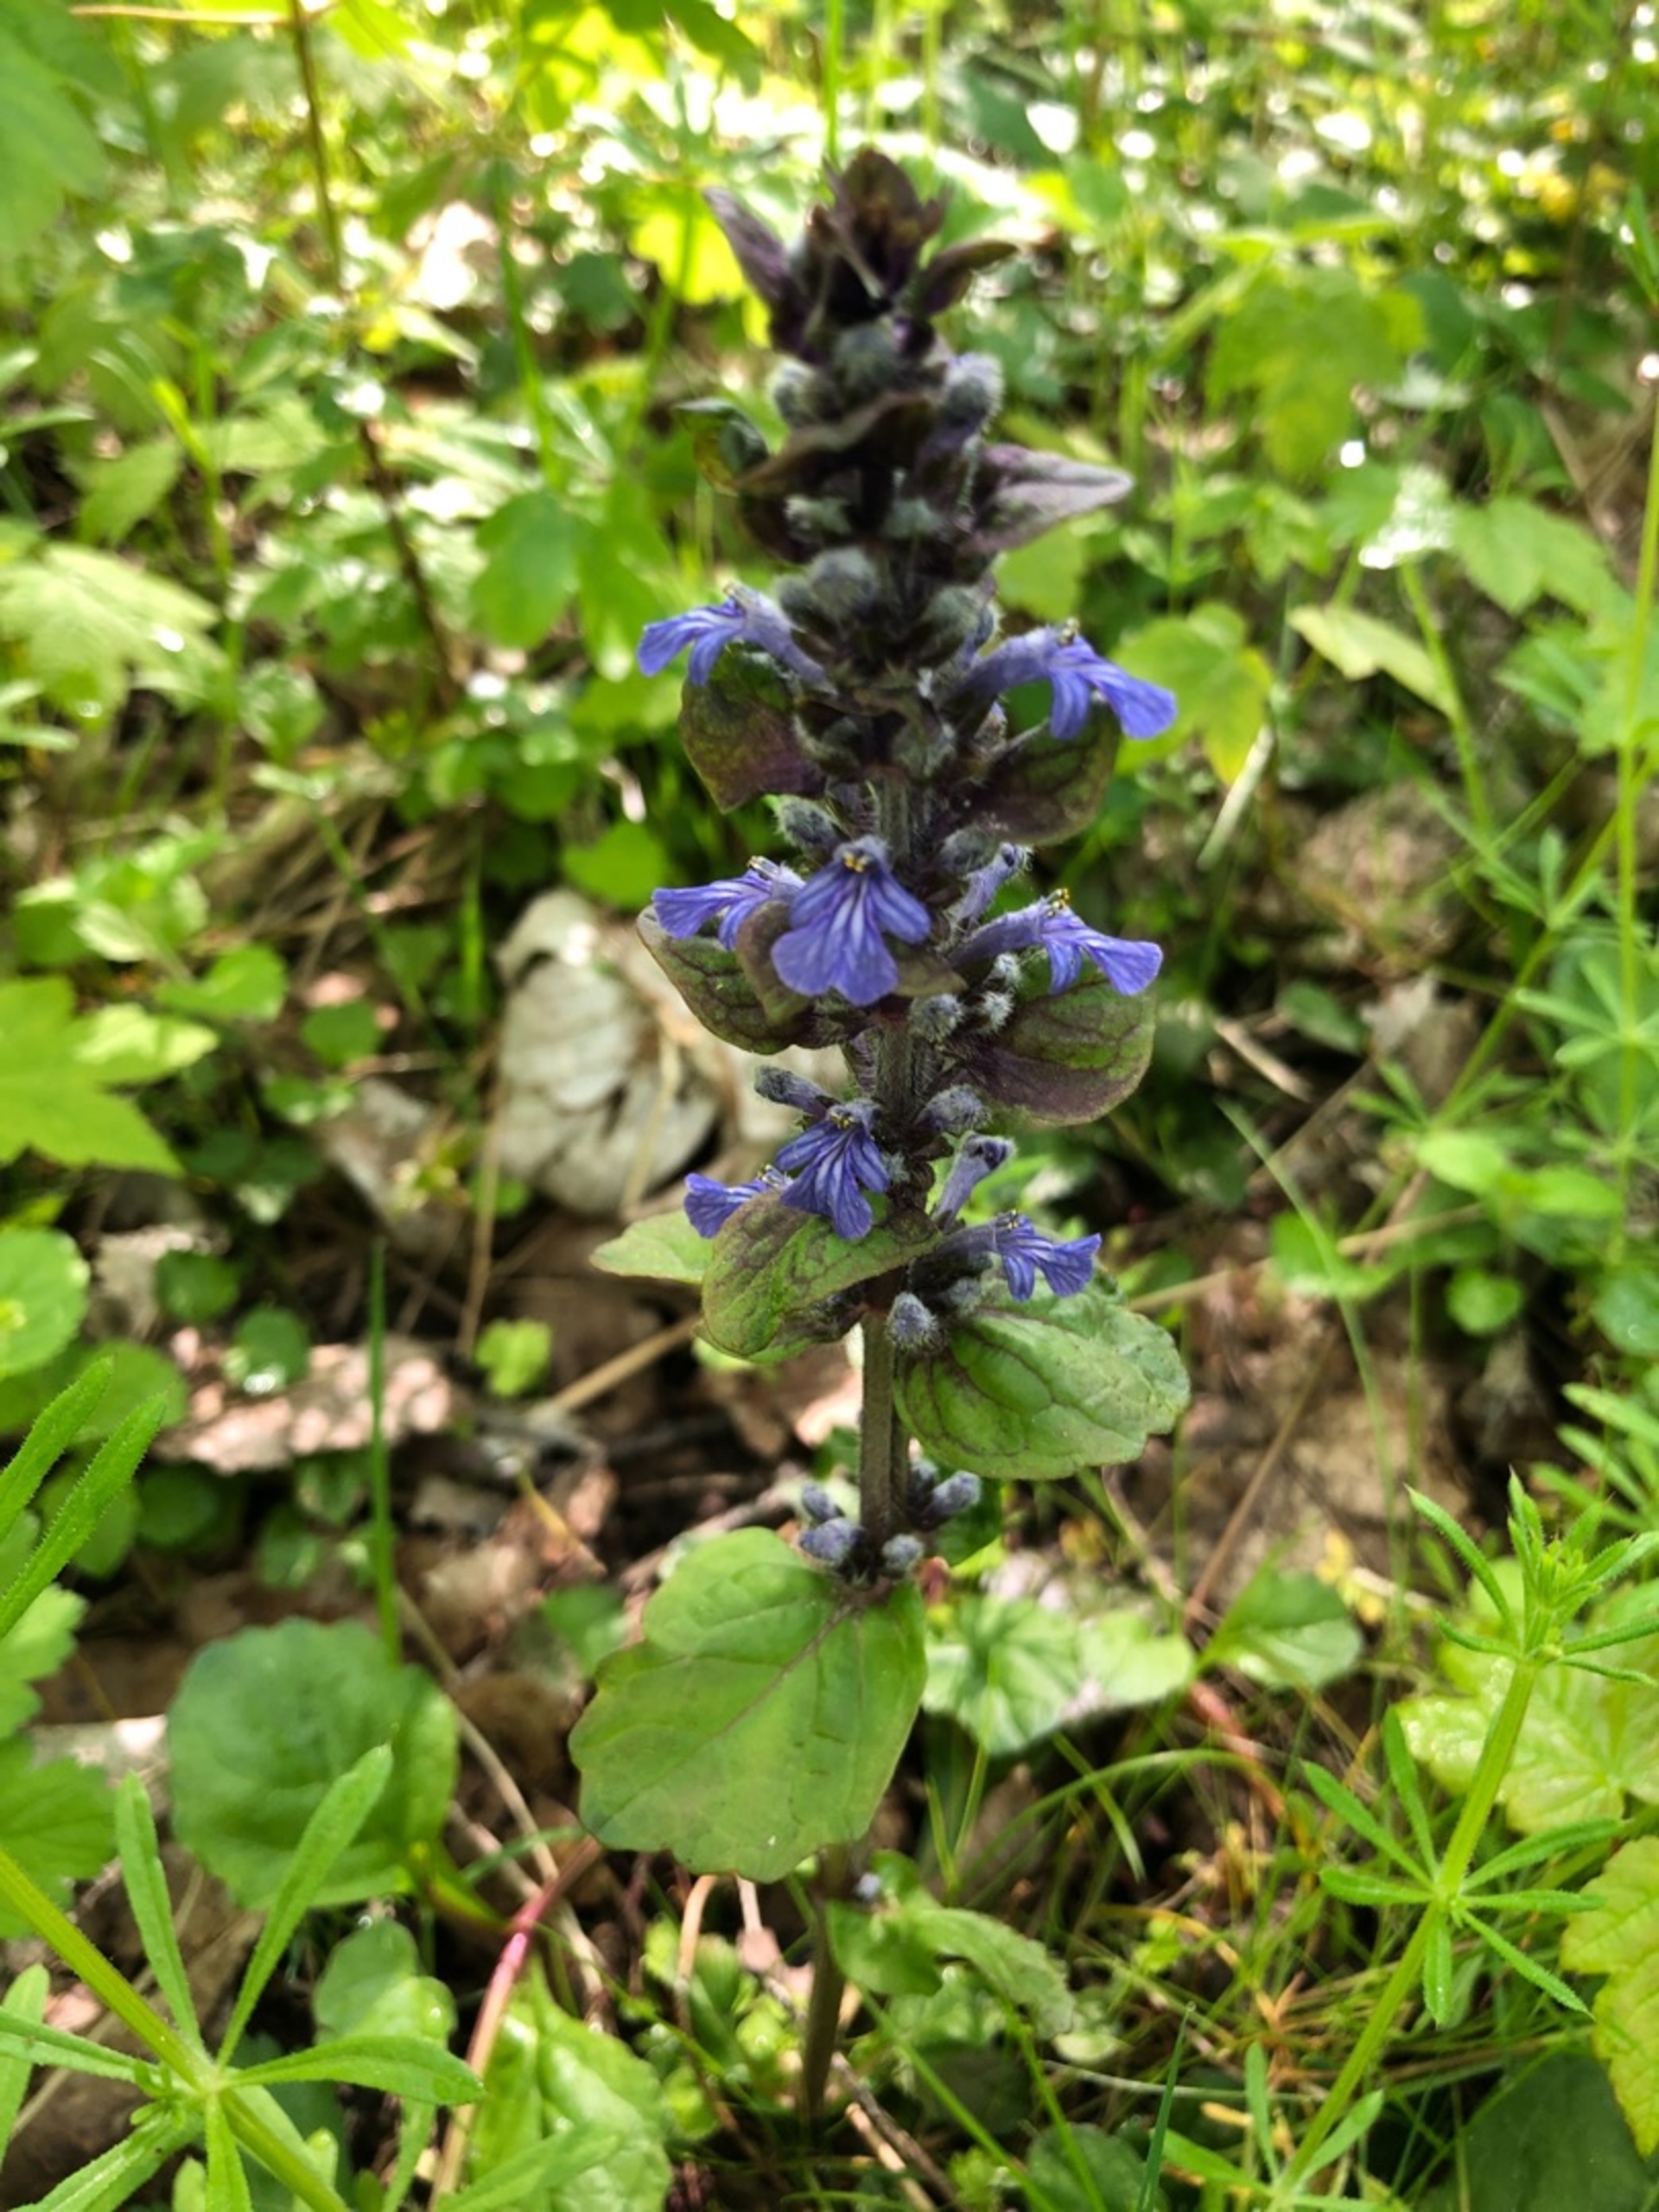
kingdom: Plantae
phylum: Tracheophyta
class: Magnoliopsida
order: Lamiales
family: Lamiaceae
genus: Ajuga
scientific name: Ajuga reptans
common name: Krybende læbeløs
